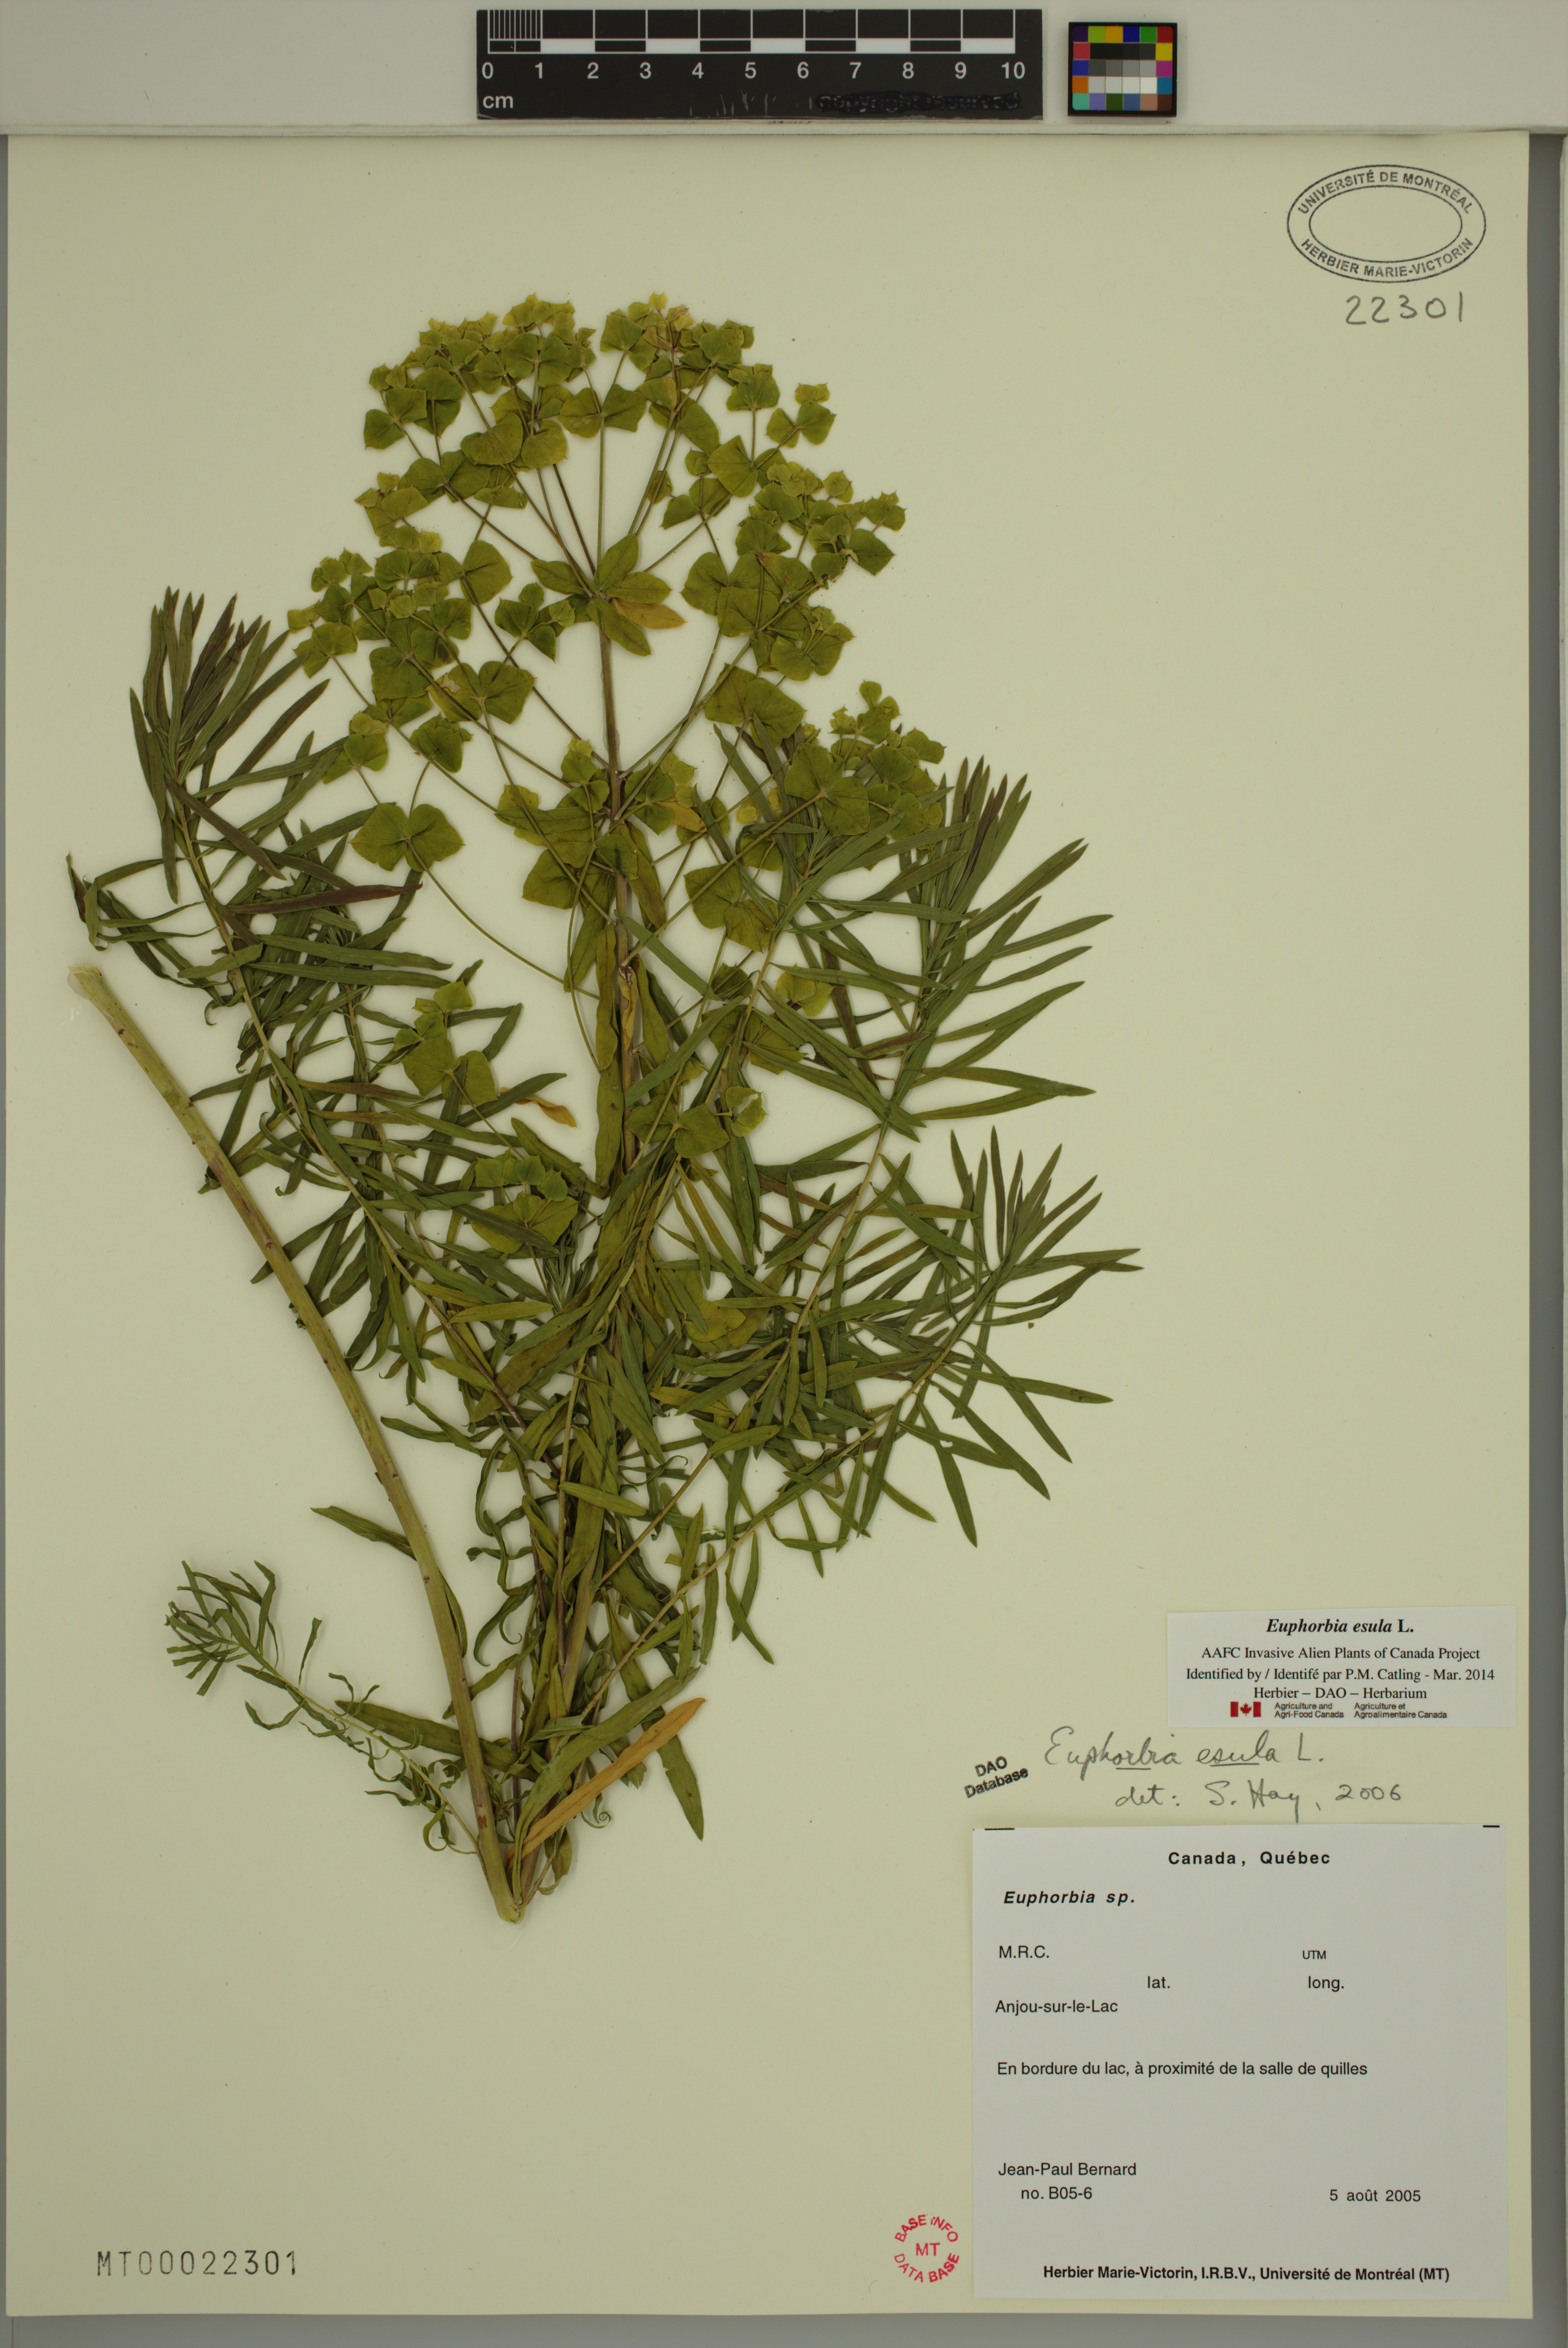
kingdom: Plantae
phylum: Tracheophyta
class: Magnoliopsida
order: Malpighiales
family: Euphorbiaceae
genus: Euphorbia
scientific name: Euphorbia esula
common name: Leafy spurge
